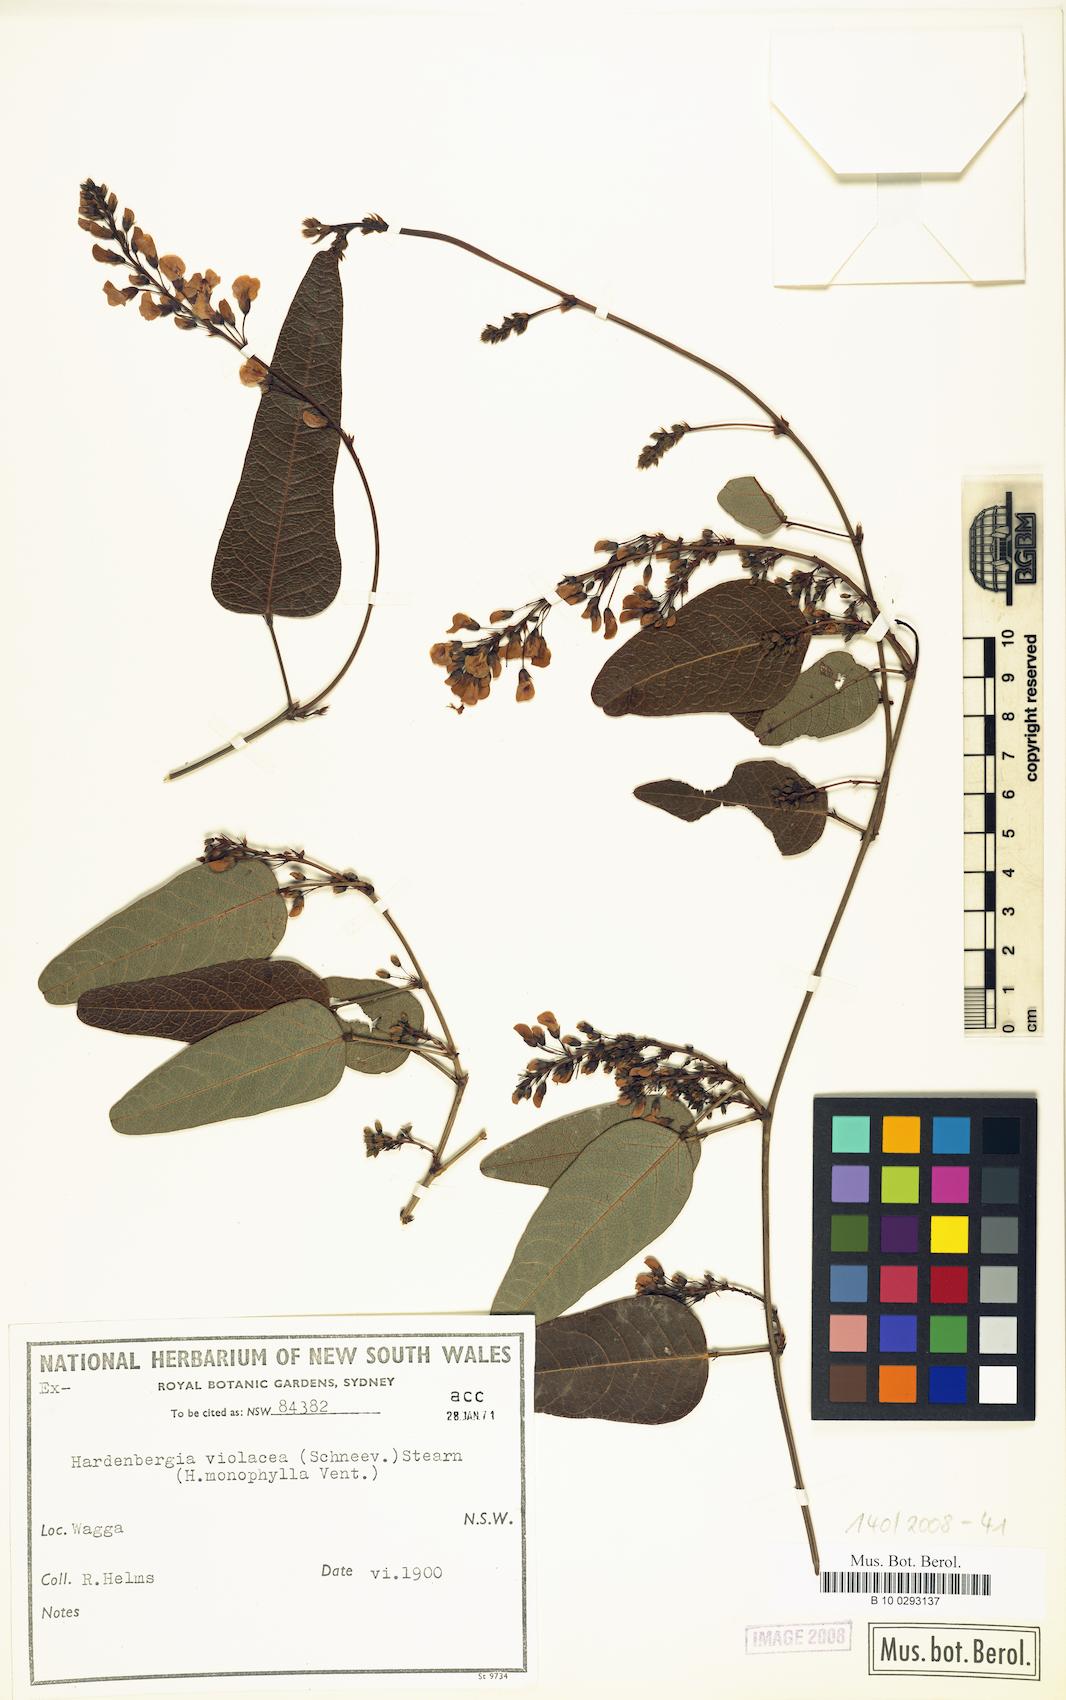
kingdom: Plantae
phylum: Tracheophyta
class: Magnoliopsida
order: Fabales
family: Fabaceae
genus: Hardenbergia
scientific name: Hardenbergia violacea
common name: Coral-pea
